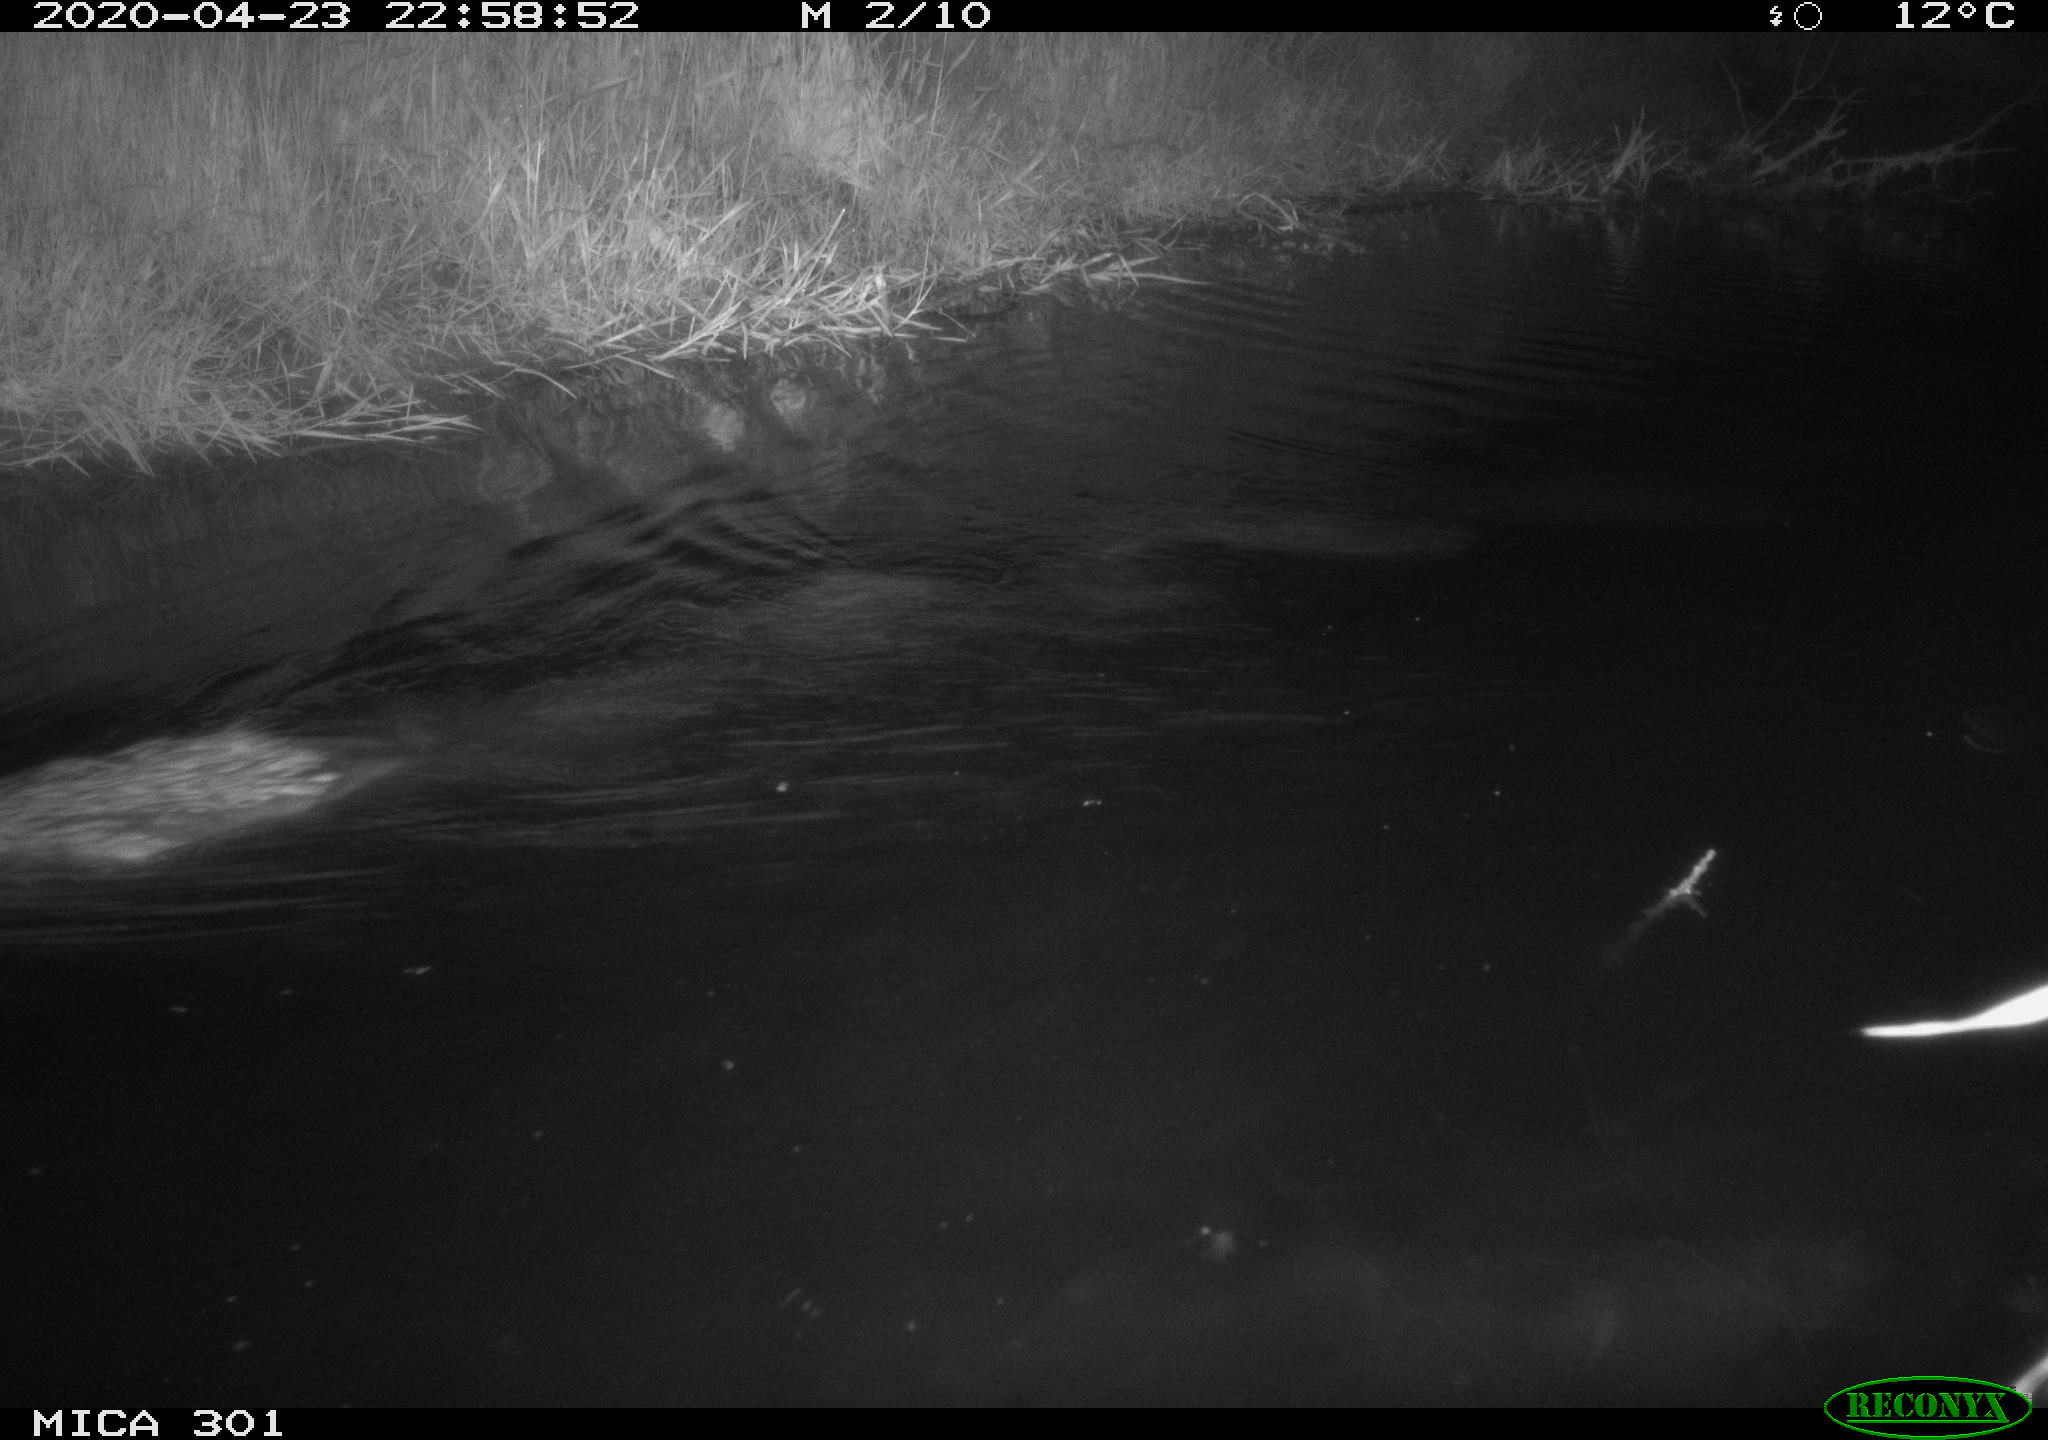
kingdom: Animalia
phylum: Chordata
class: Mammalia
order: Rodentia
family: Castoridae
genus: Castor
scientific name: Castor fiber
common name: Eurasian beaver
